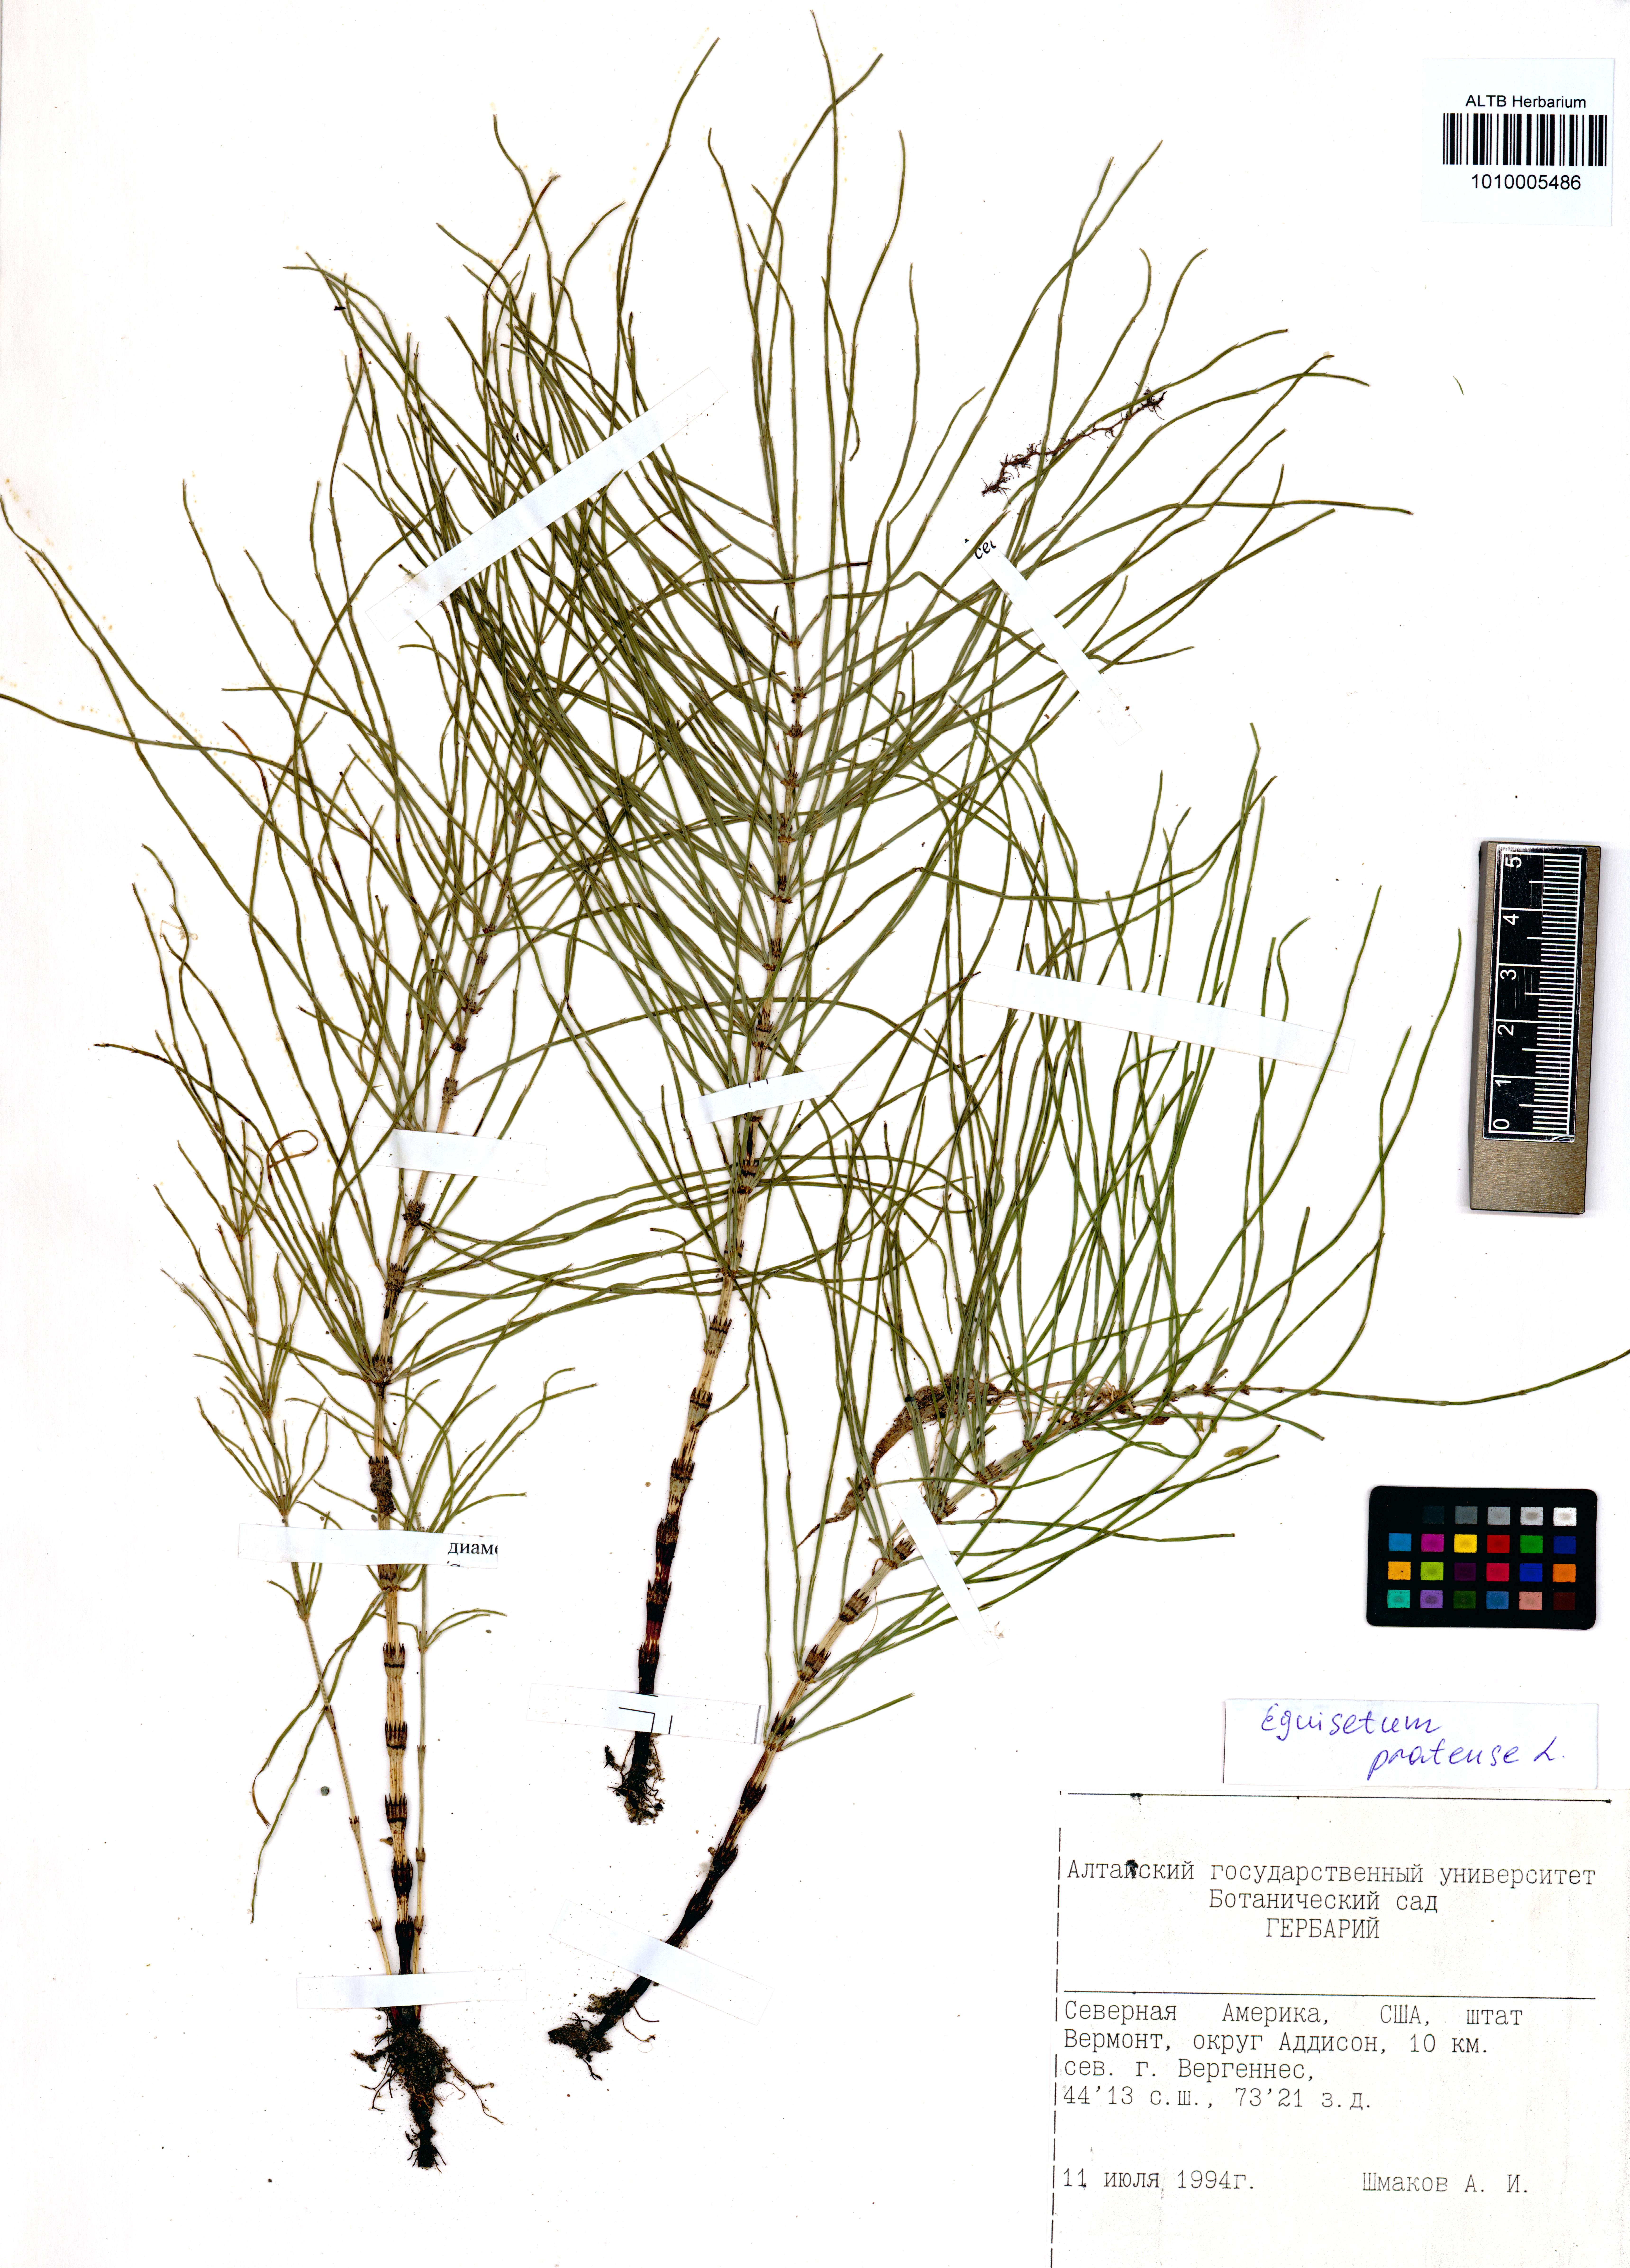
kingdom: Plantae
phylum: Tracheophyta
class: Polypodiopsida
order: Equisetales
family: Equisetaceae
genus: Equisetum
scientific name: Equisetum pratense
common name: Meadow horsetail
